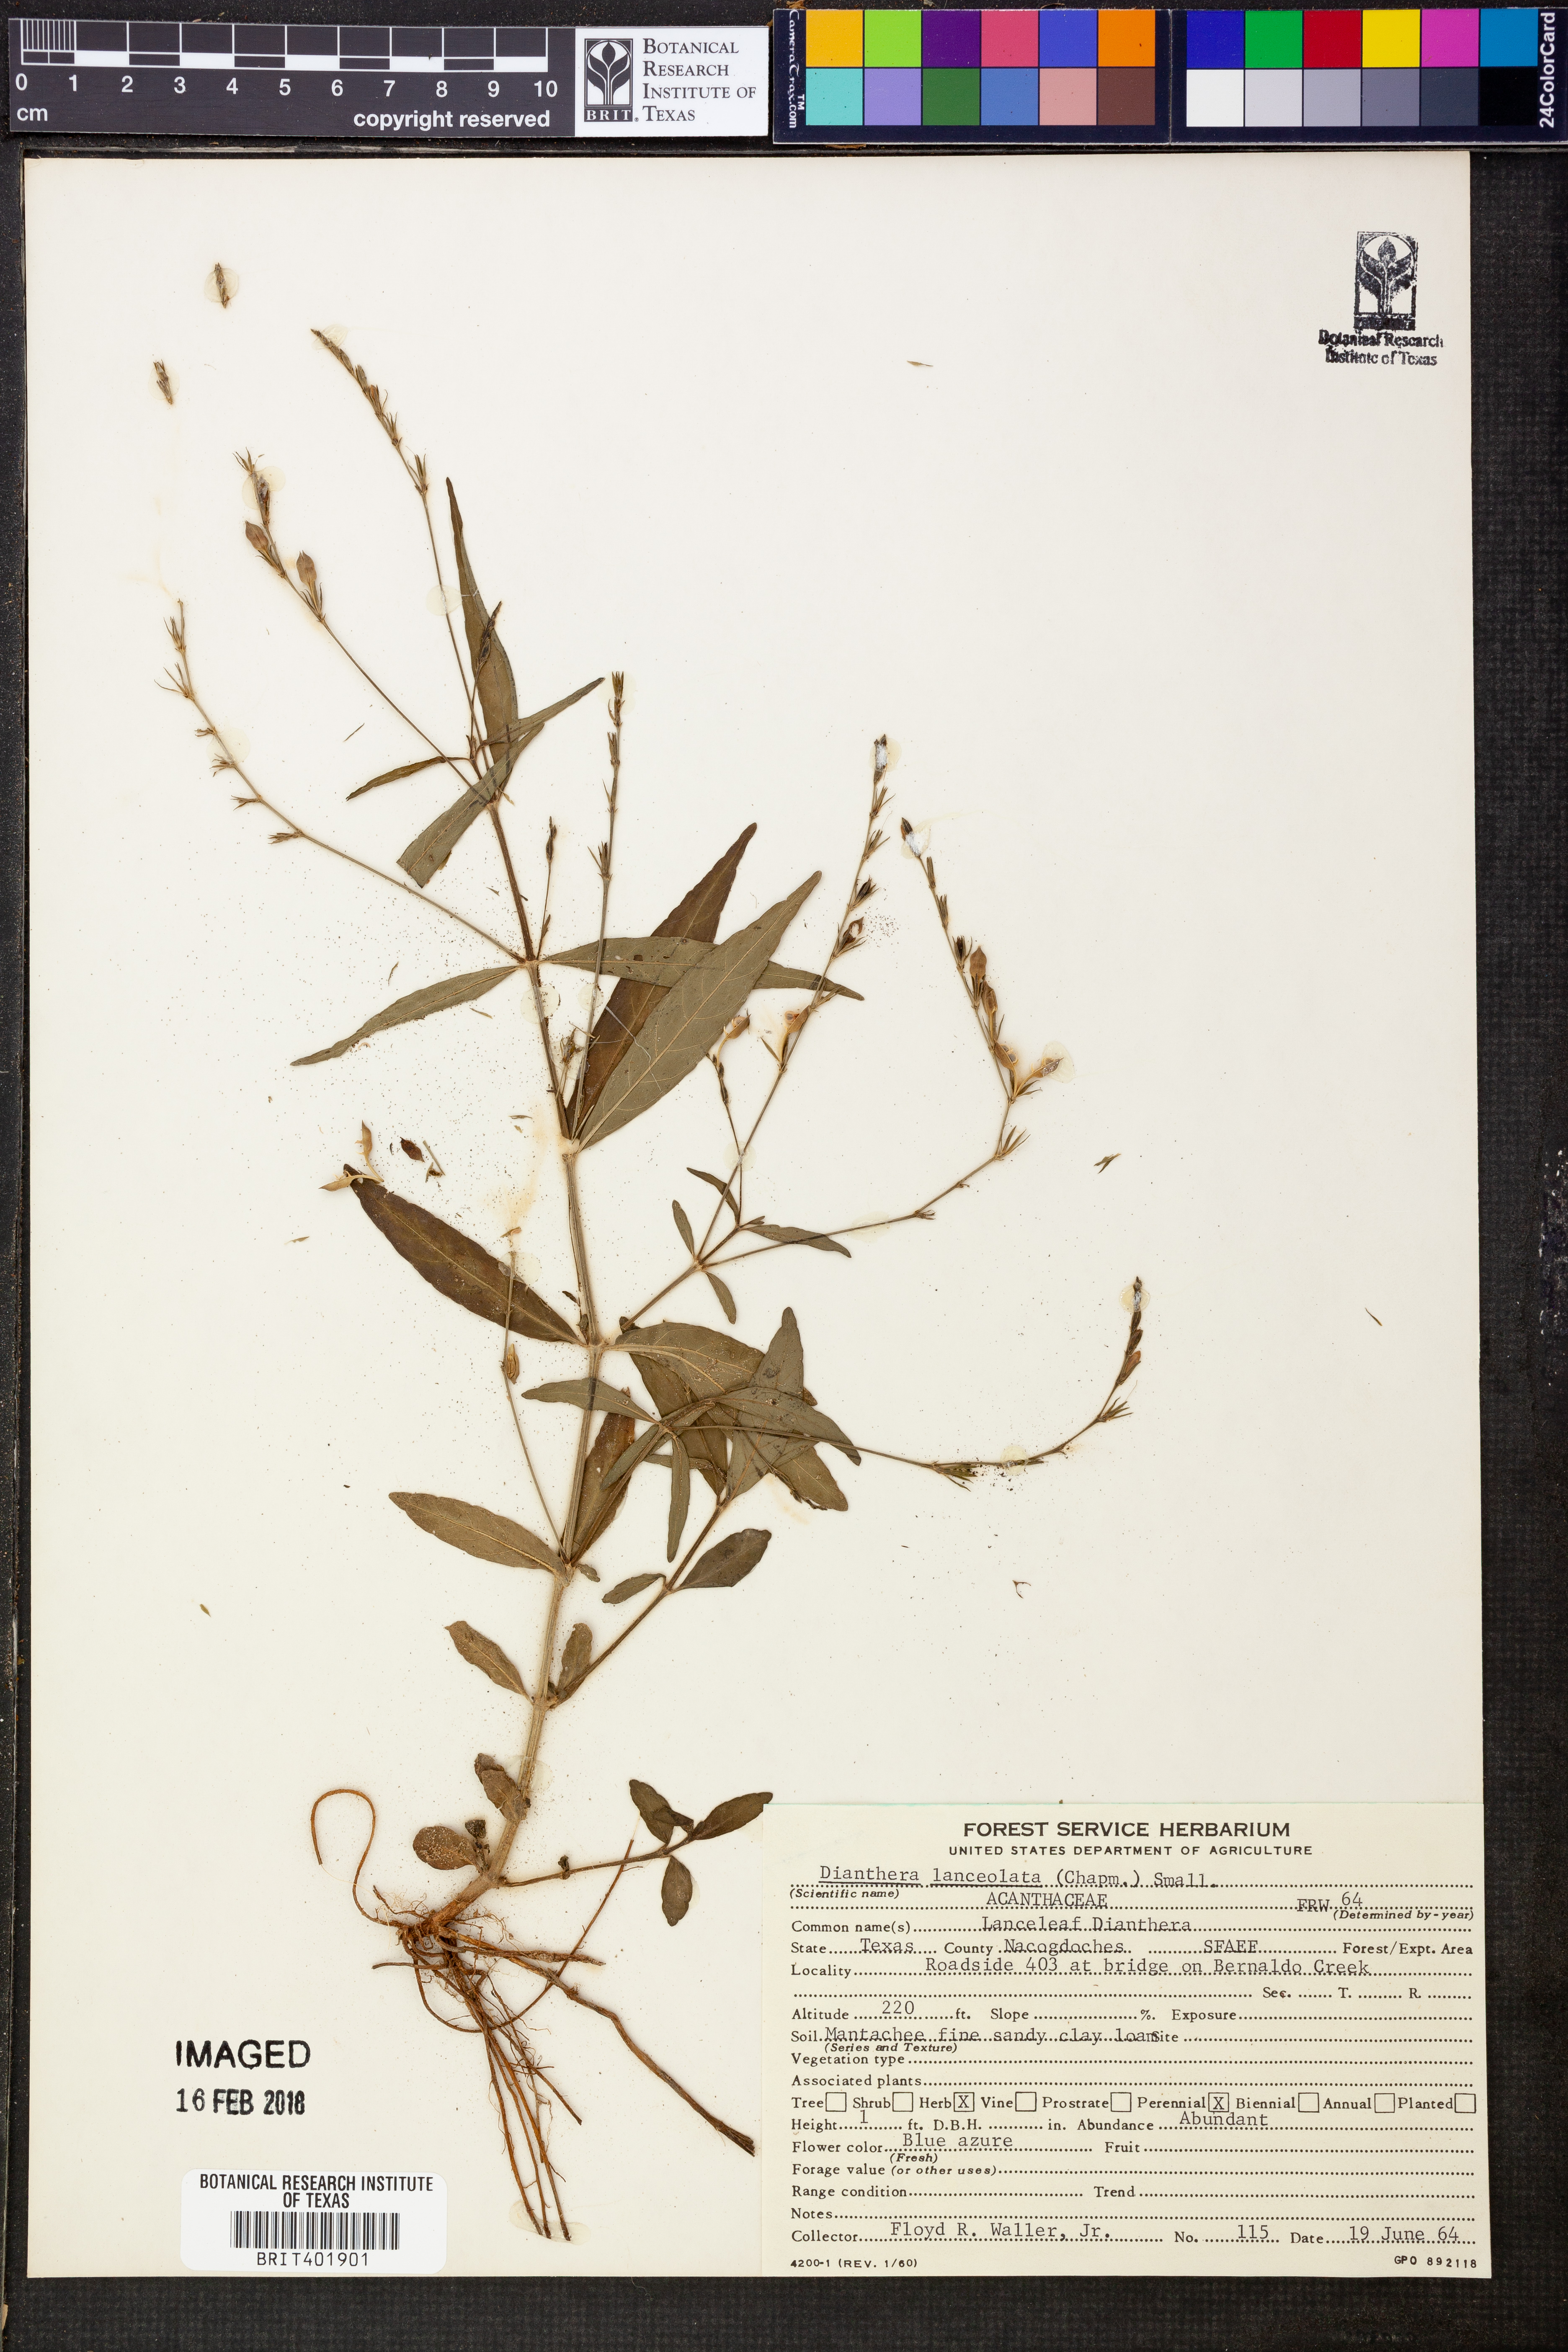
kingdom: Plantae
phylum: Tracheophyta
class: Magnoliopsida
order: Lamiales
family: Acanthaceae
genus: Justicia
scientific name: Justicia lanceolata
